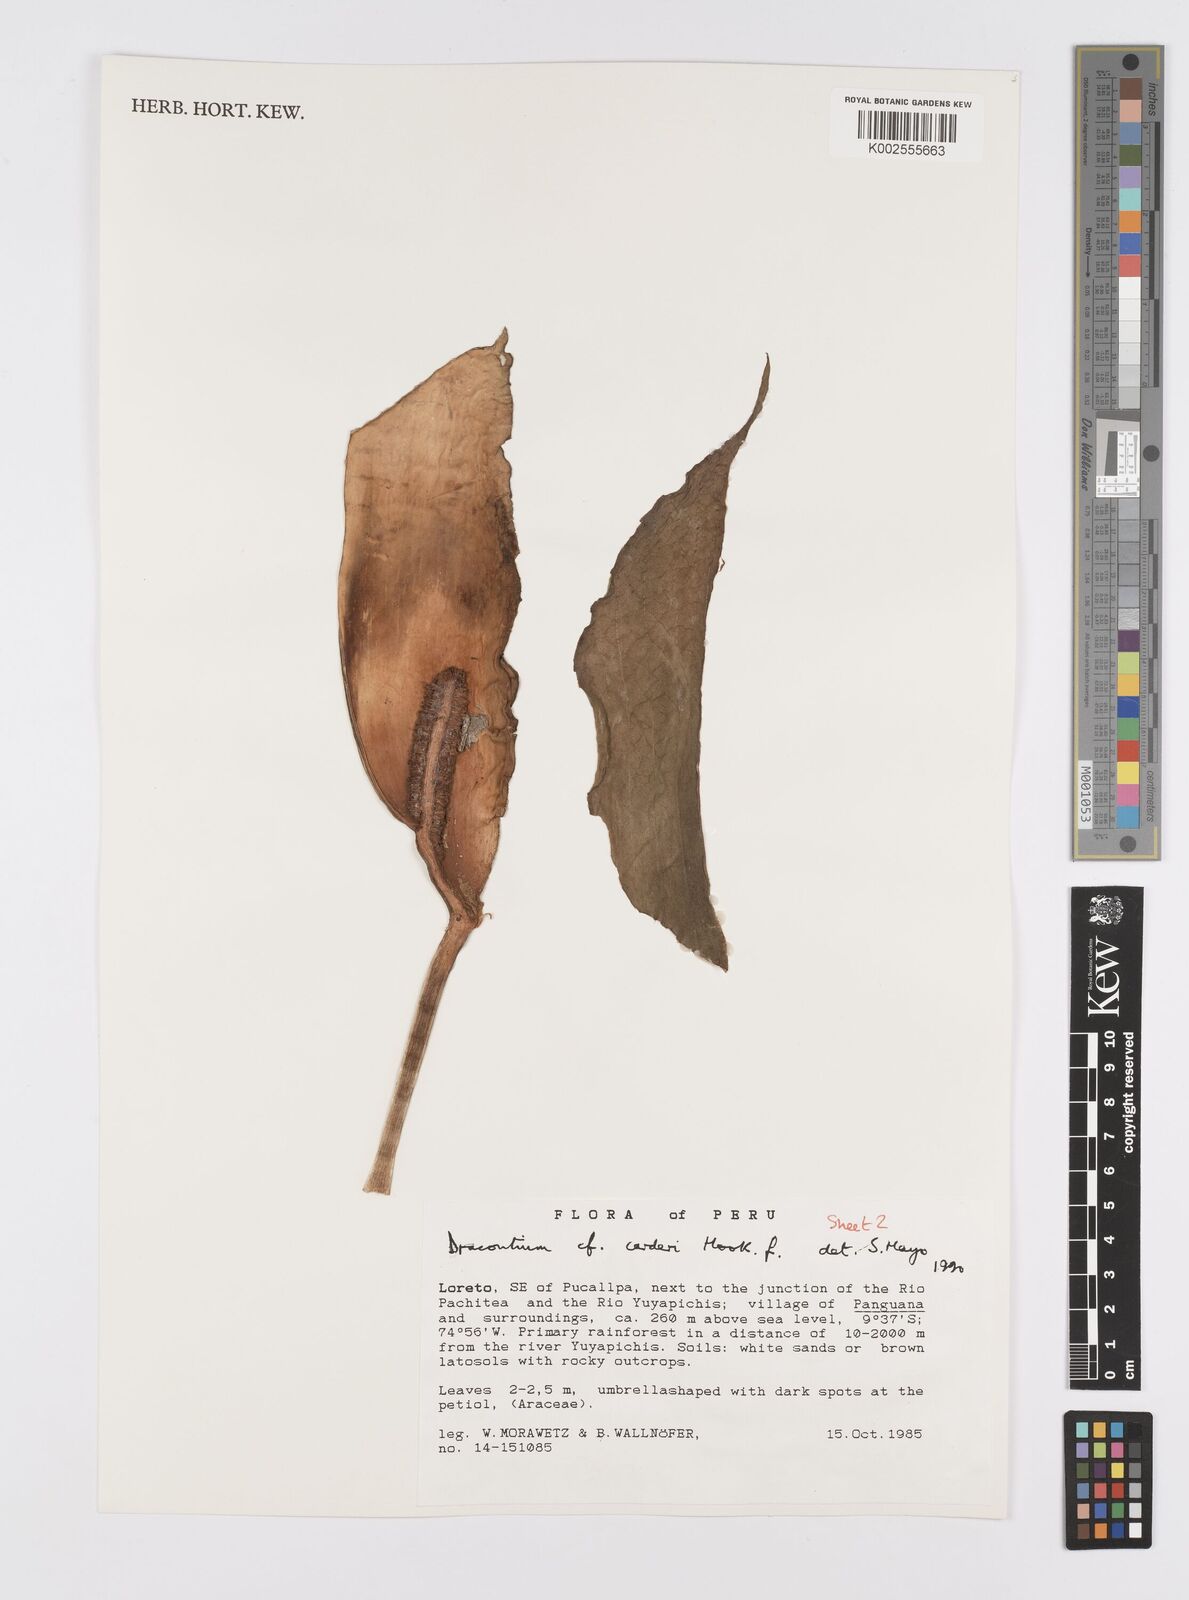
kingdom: Plantae
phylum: Tracheophyta
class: Liliopsida
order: Alismatales
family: Araceae
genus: Dracontium
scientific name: Dracontium spruceanum
